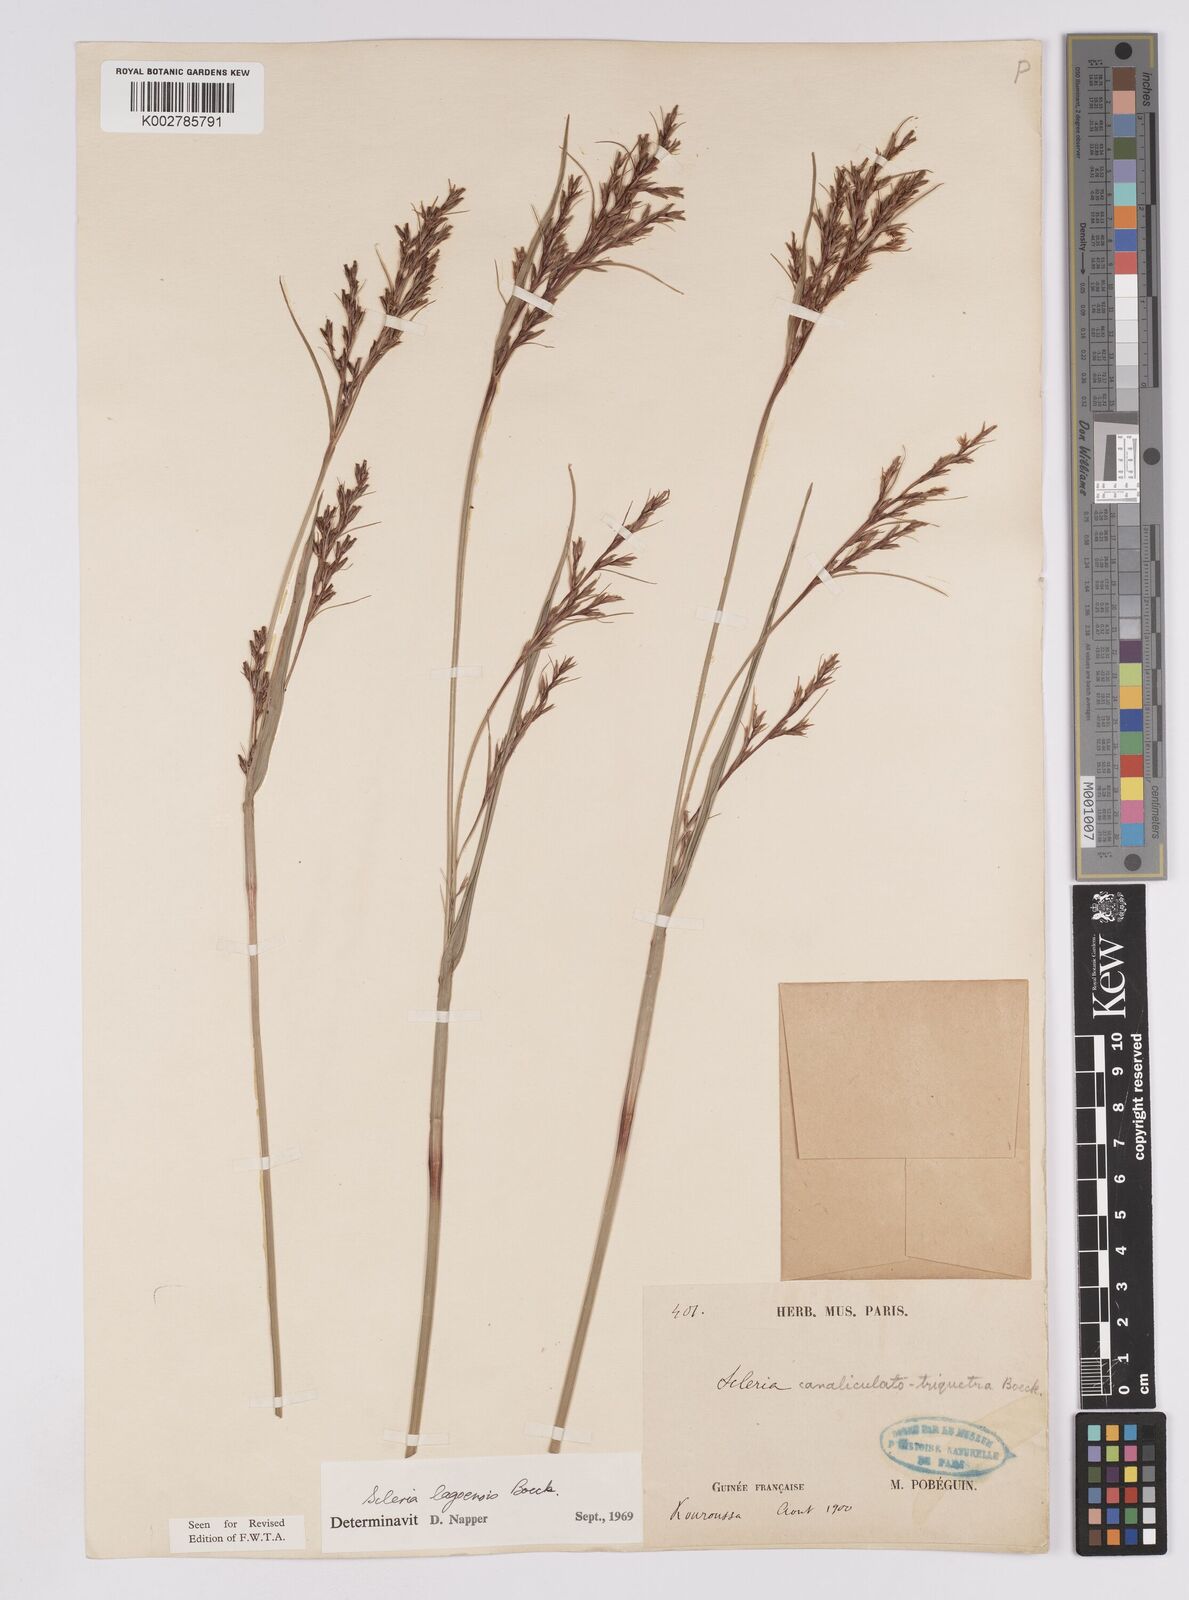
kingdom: Plantae
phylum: Tracheophyta
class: Liliopsida
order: Poales
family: Cyperaceae
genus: Scleria
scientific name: Scleria lagoensis
